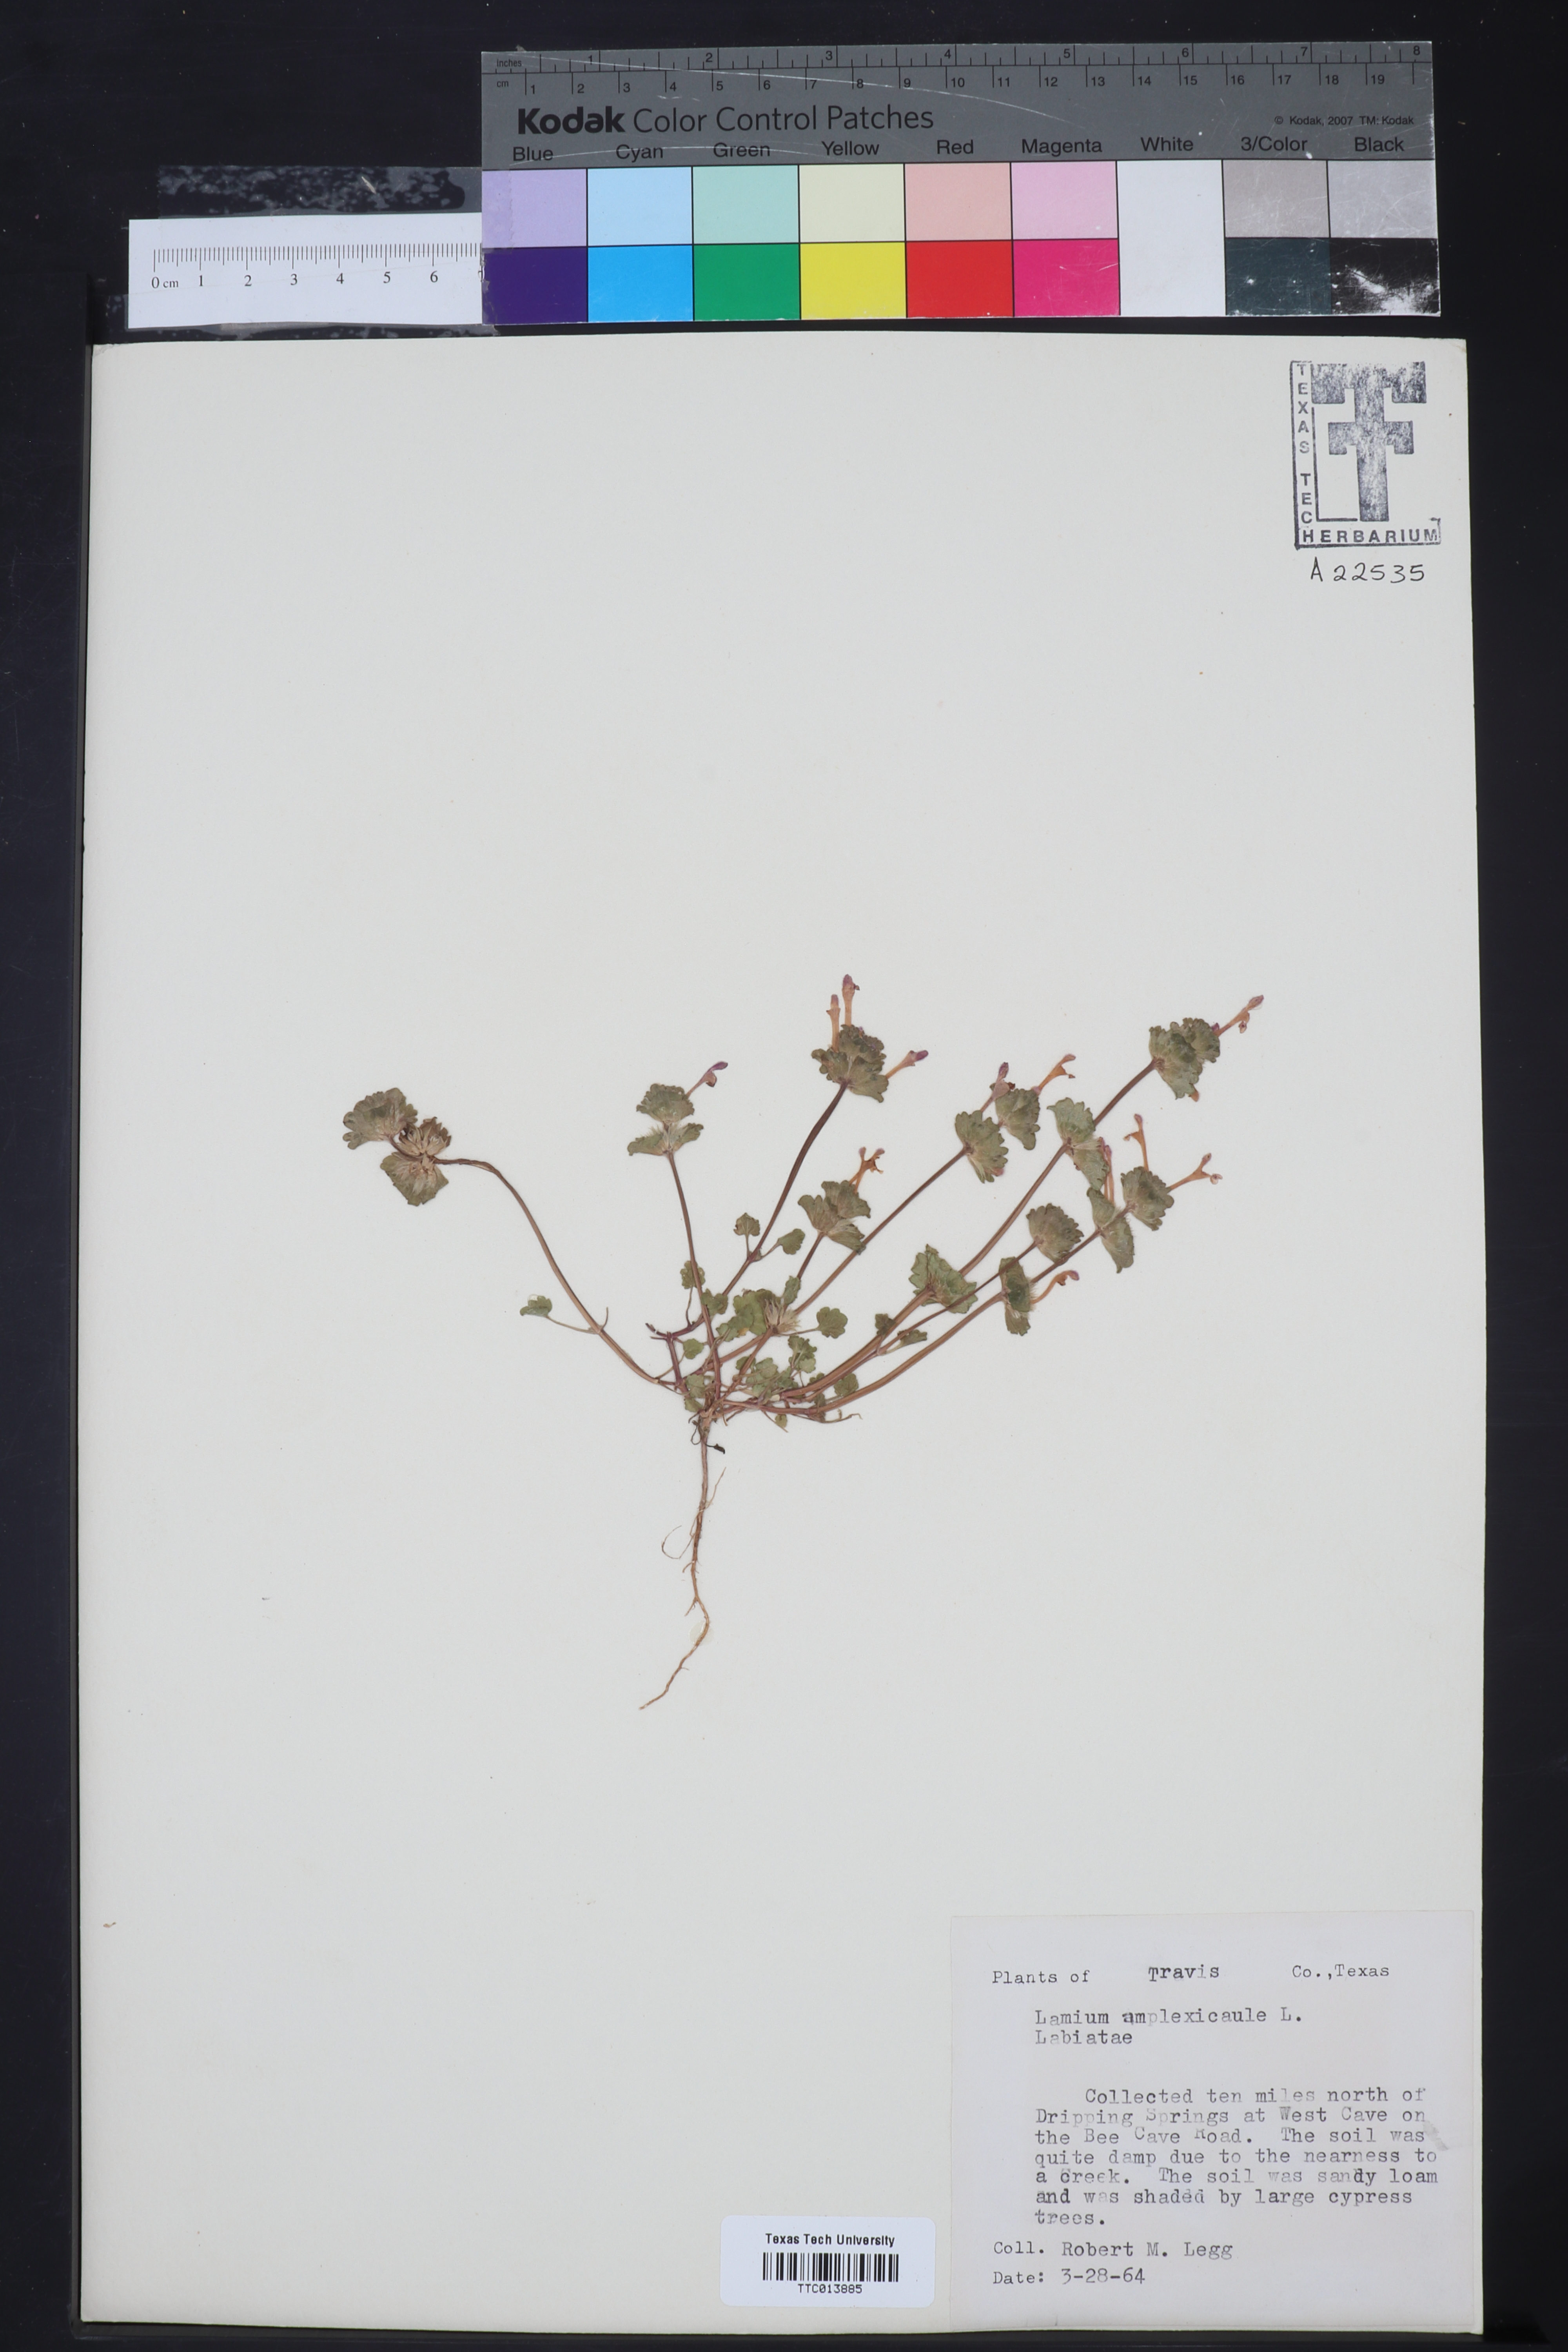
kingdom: Plantae
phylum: Tracheophyta
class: Magnoliopsida
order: Lamiales
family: Lamiaceae
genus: Lamium
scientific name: Lamium amplexicaule
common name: Henbit dead-nettle
